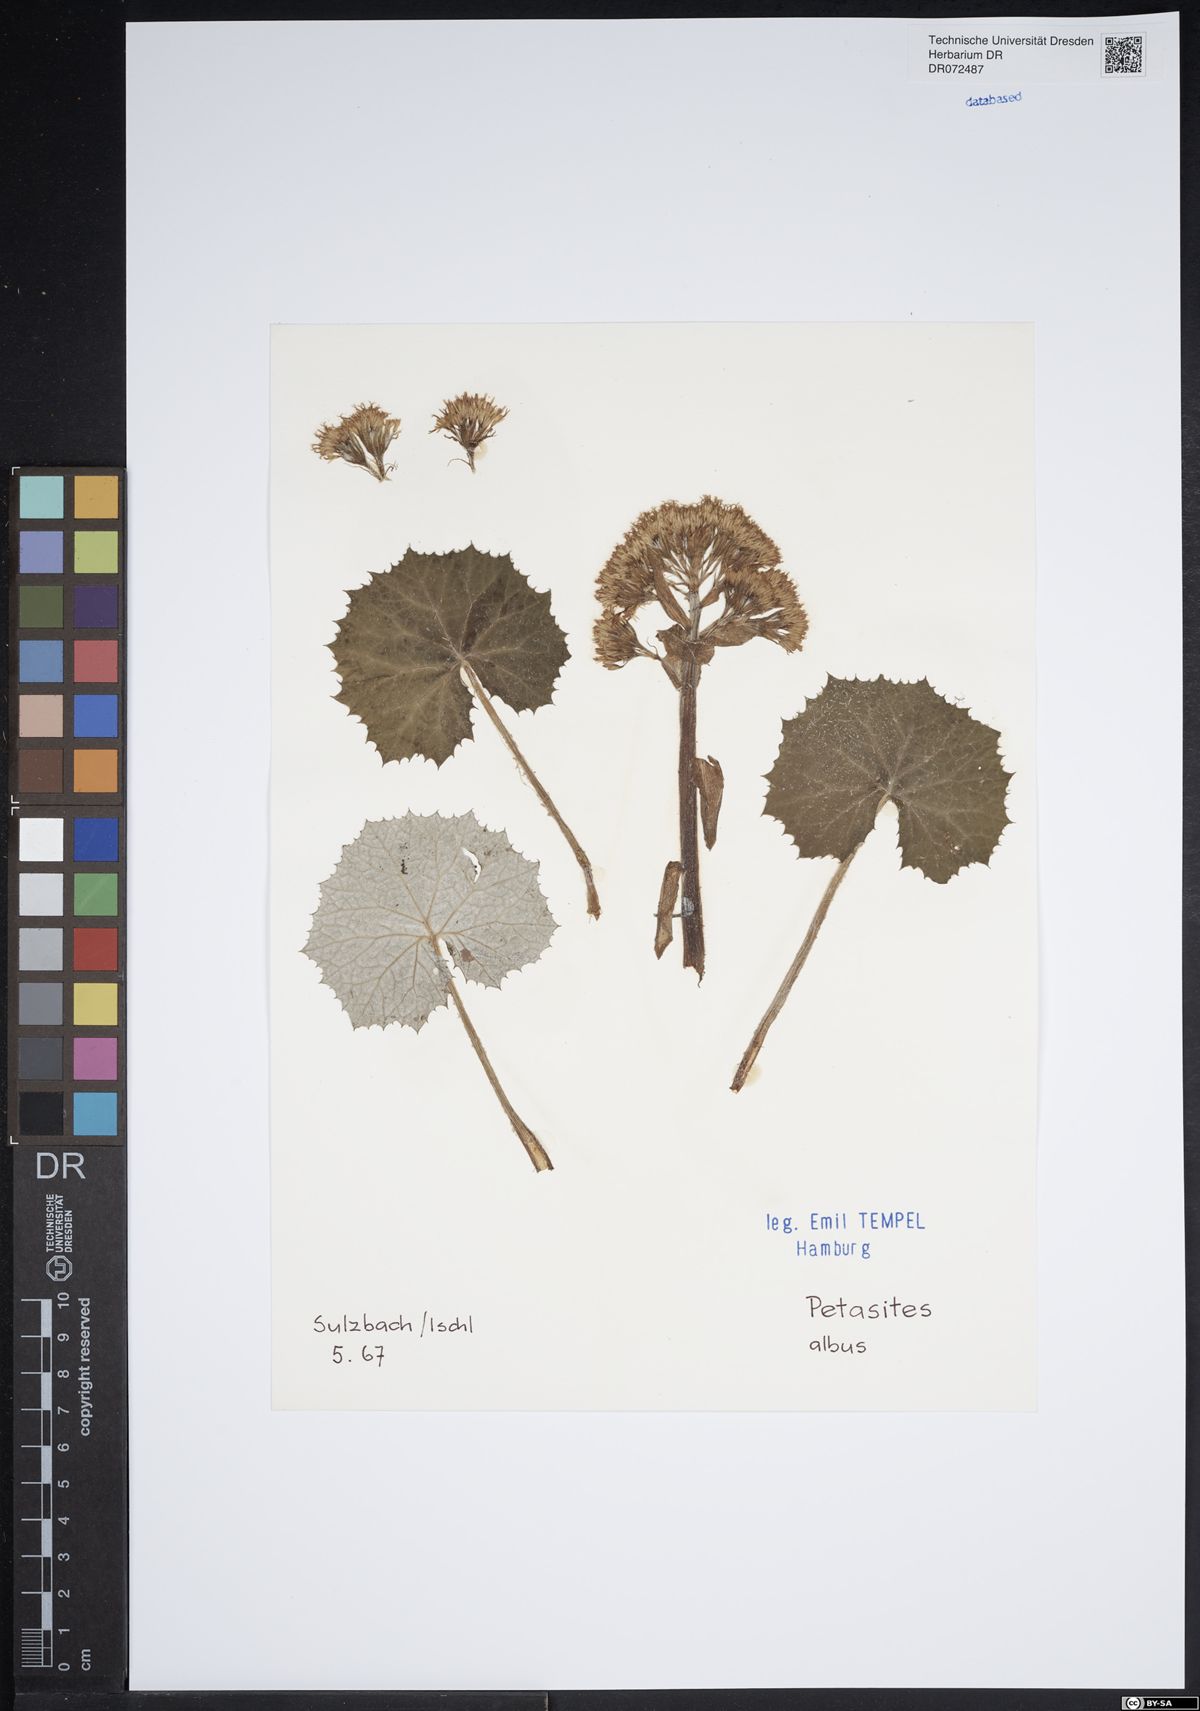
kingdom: Plantae
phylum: Tracheophyta
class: Magnoliopsida
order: Asterales
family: Asteraceae
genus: Petasites
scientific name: Petasites albus
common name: White butterbur
